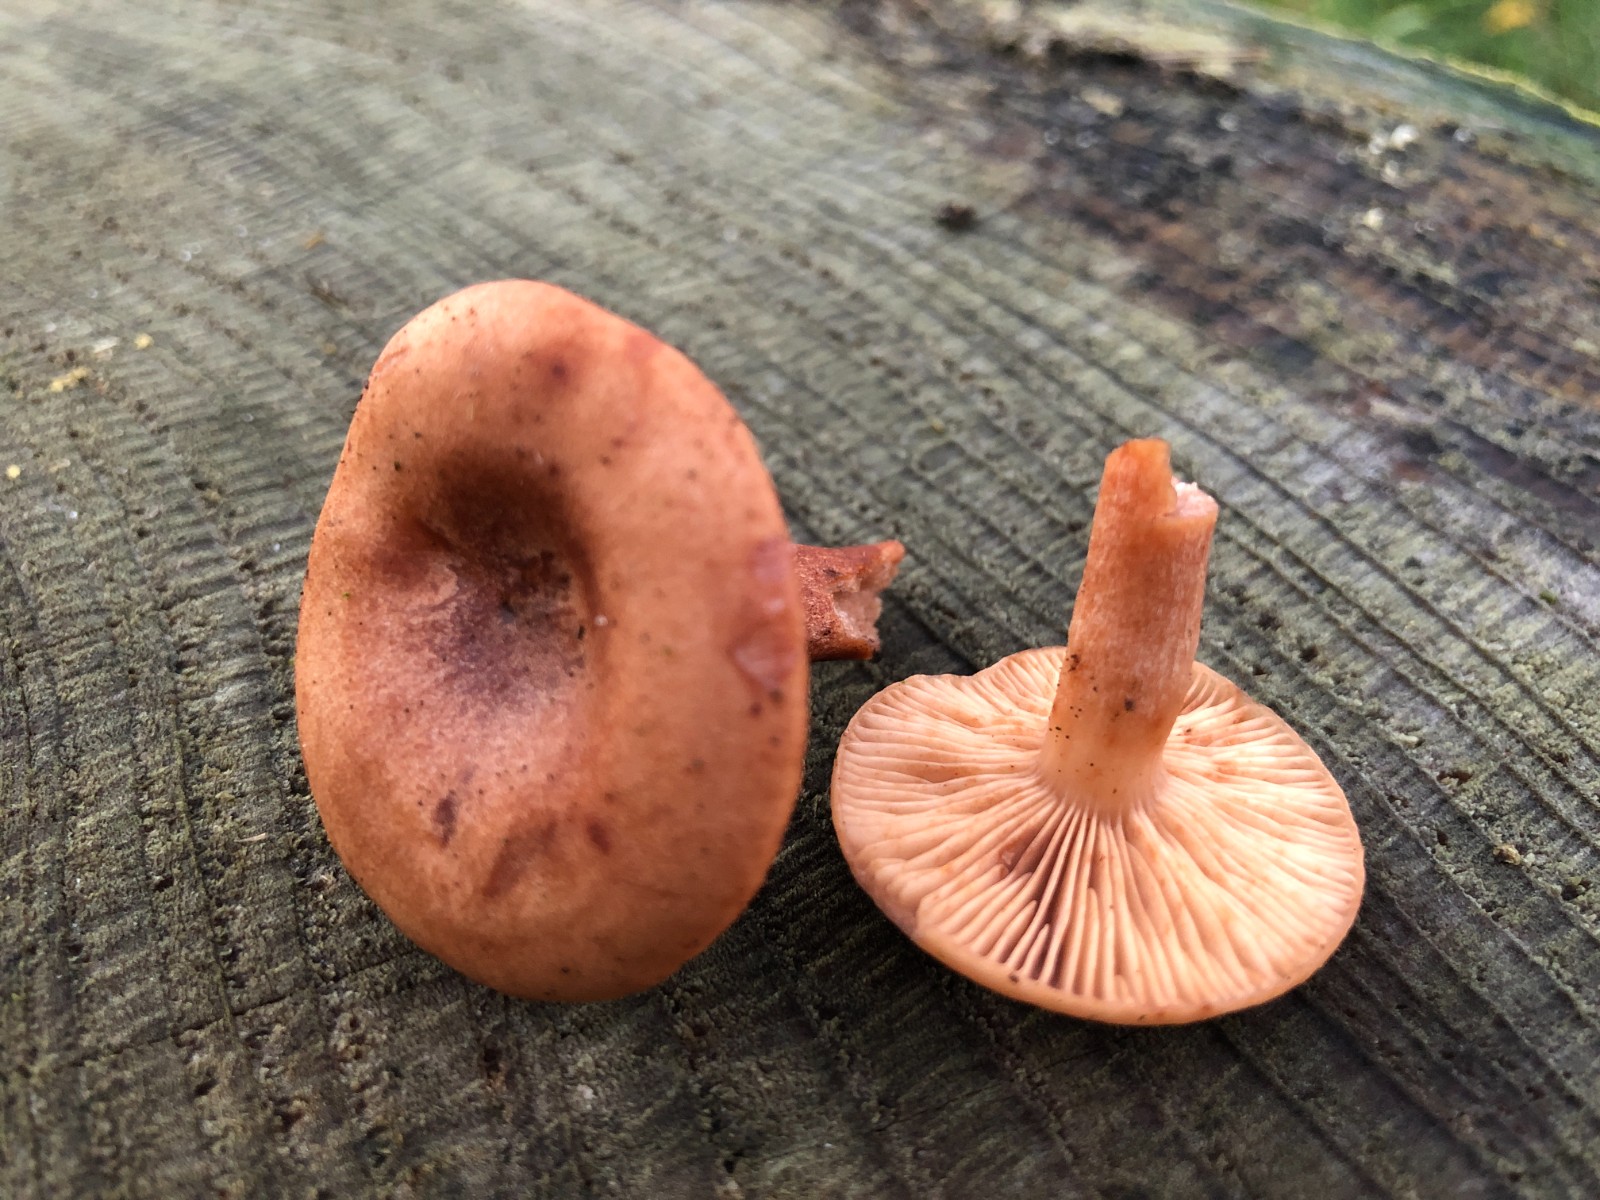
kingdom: Fungi
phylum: Basidiomycota
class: Agaricomycetes
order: Russulales
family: Russulaceae
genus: Lactarius
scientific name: Lactarius
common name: mælkehat
